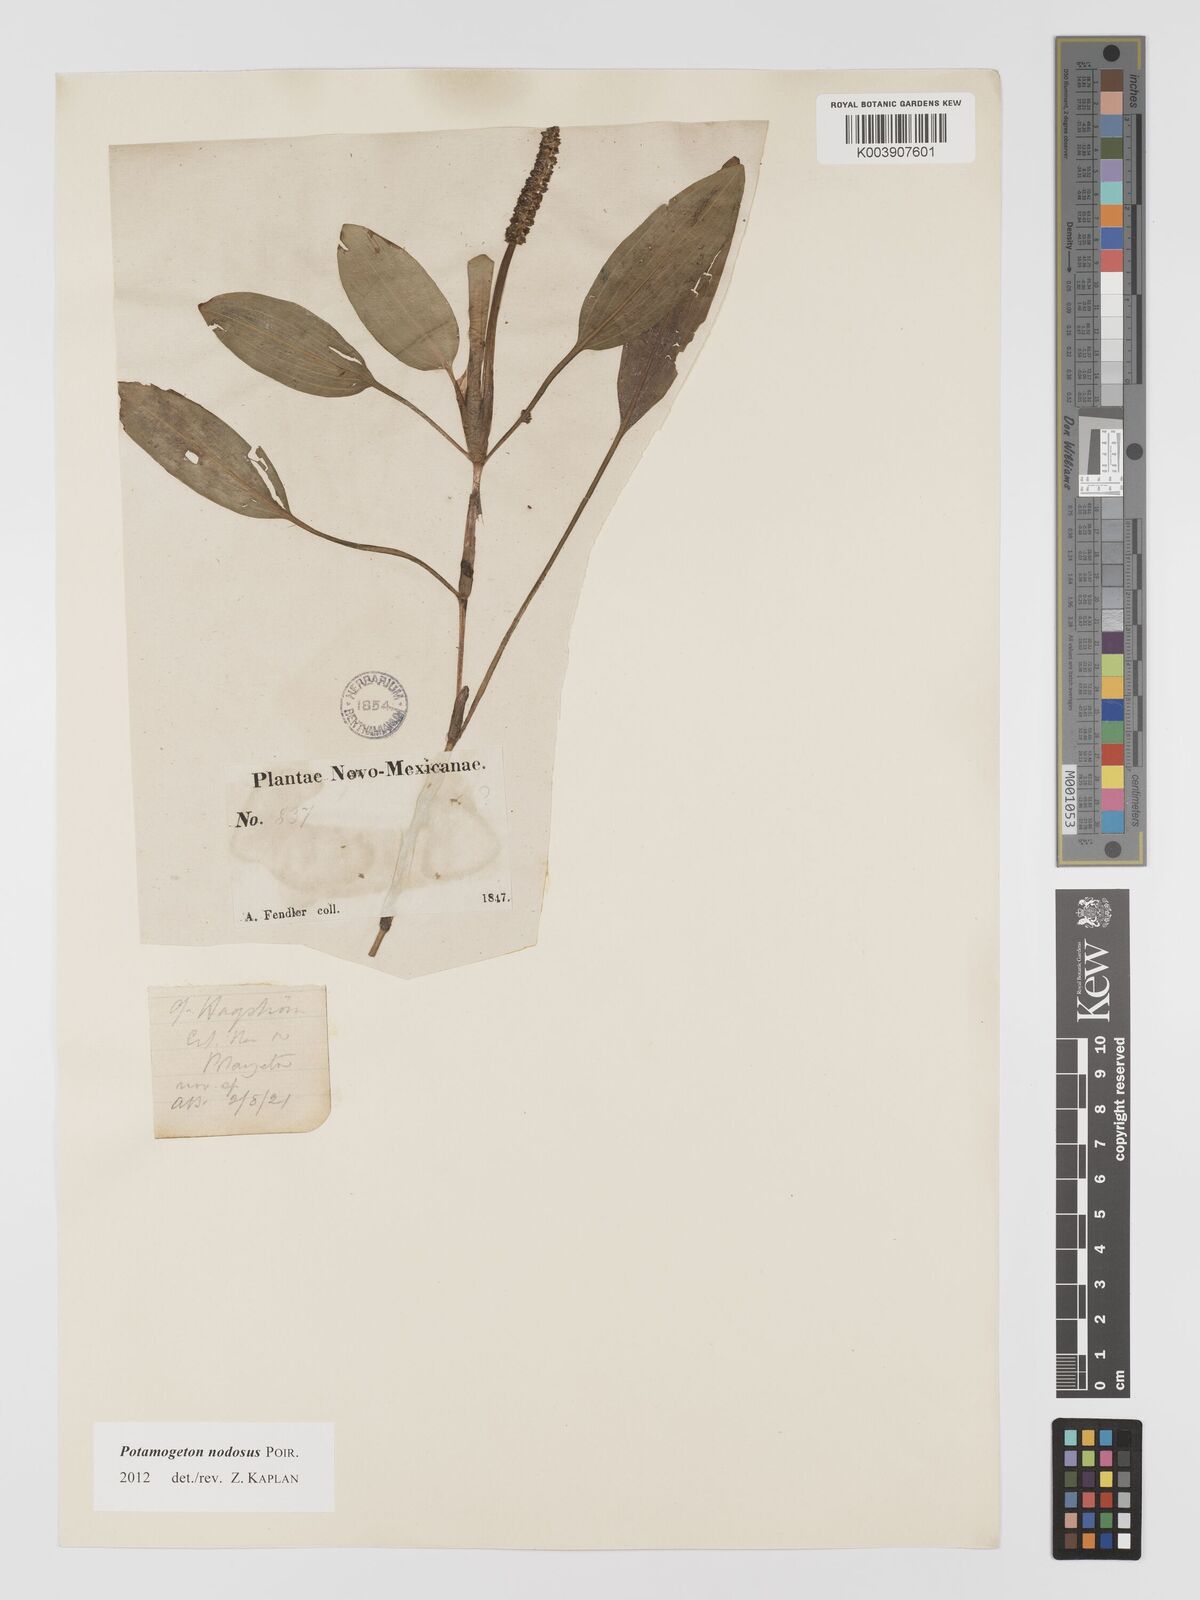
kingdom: Plantae
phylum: Tracheophyta
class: Liliopsida
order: Alismatales
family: Potamogetonaceae
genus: Potamogeton
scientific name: Potamogeton nodosus
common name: Loddon pondweed
